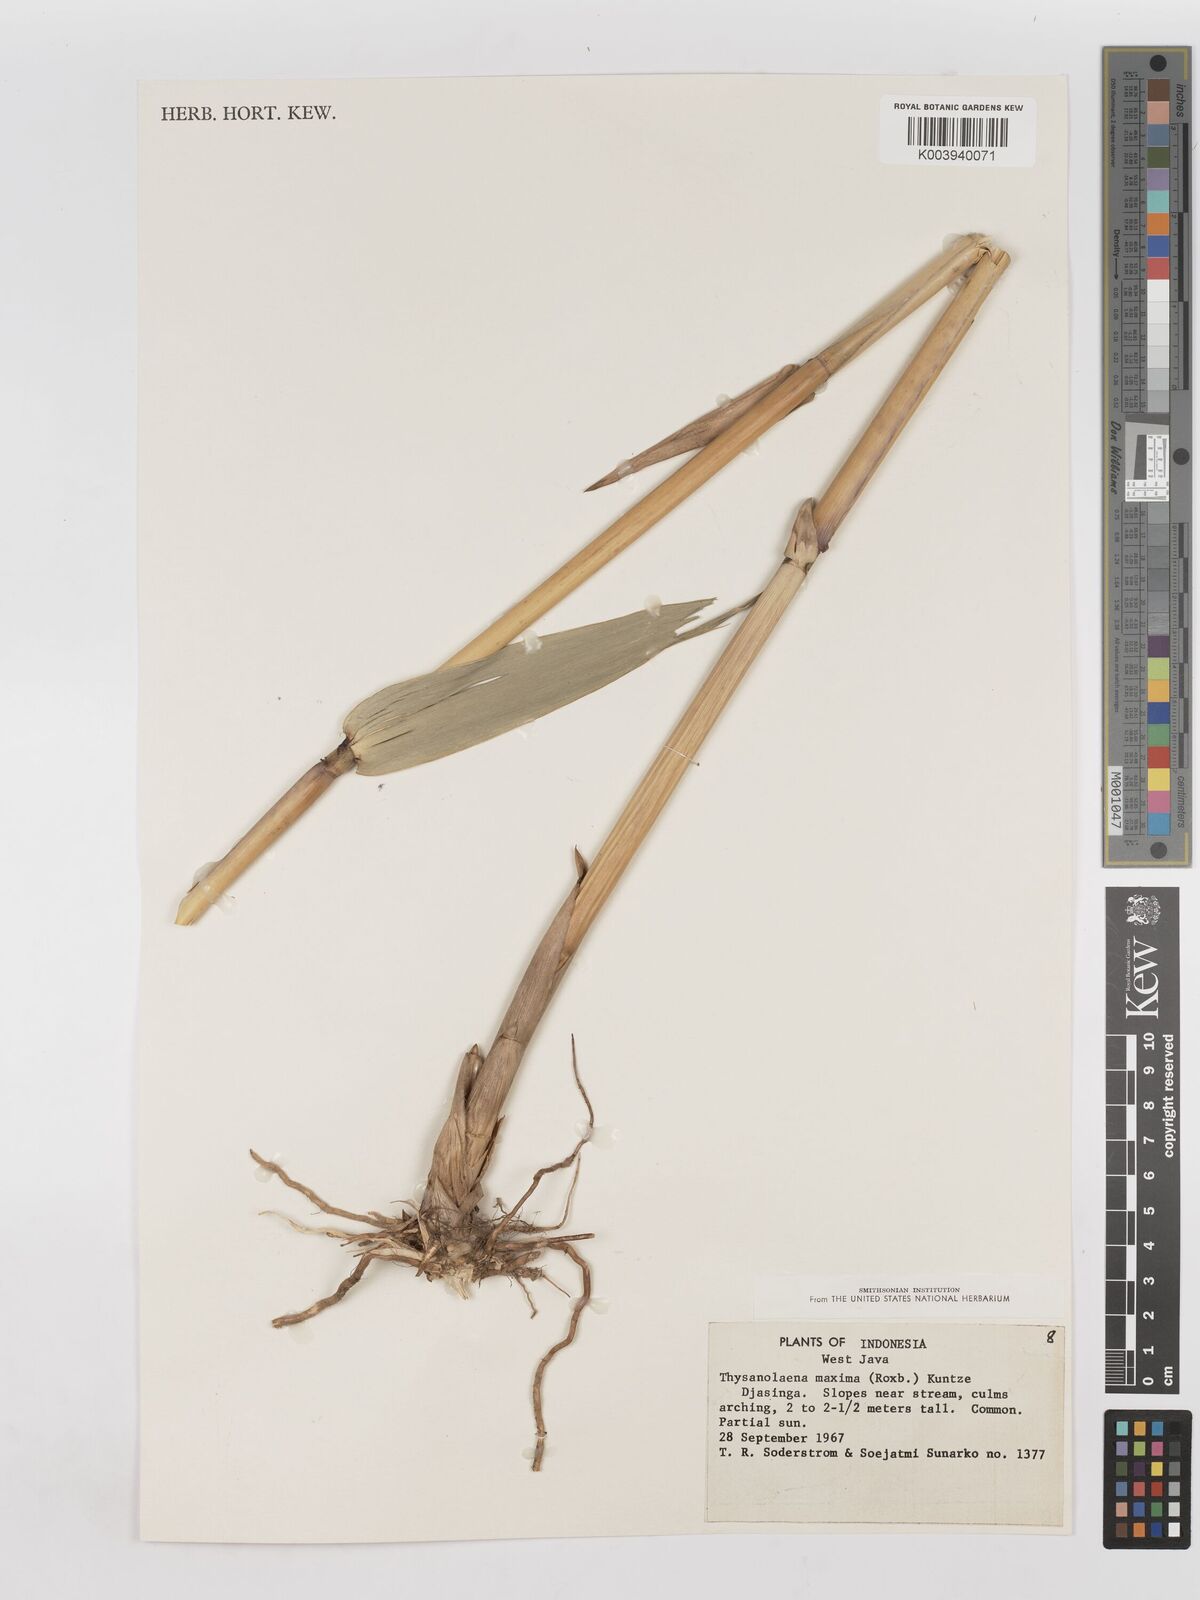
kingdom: Plantae
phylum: Tracheophyta
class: Liliopsida
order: Poales
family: Poaceae
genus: Thysanolaena
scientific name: Thysanolaena latifolia
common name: Tiger grass
